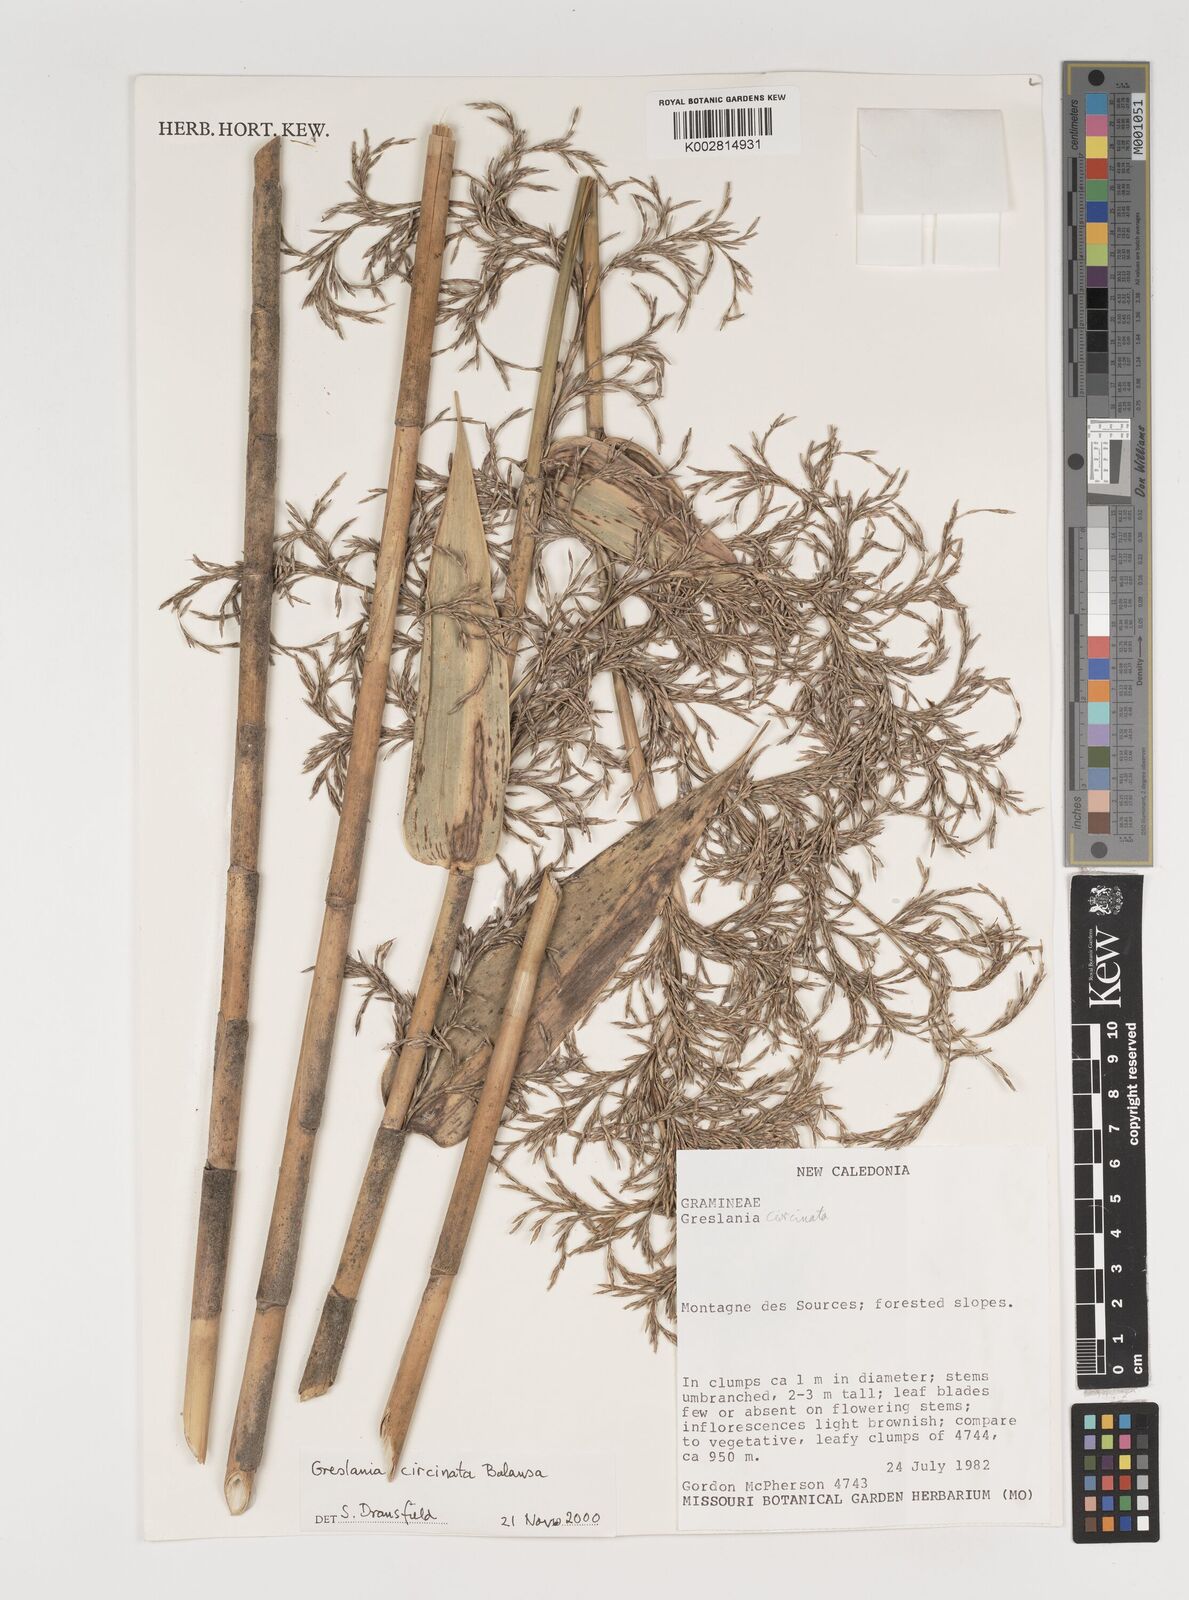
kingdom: Plantae
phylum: Tracheophyta
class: Liliopsida
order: Poales
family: Poaceae
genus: Greslania
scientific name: Greslania
